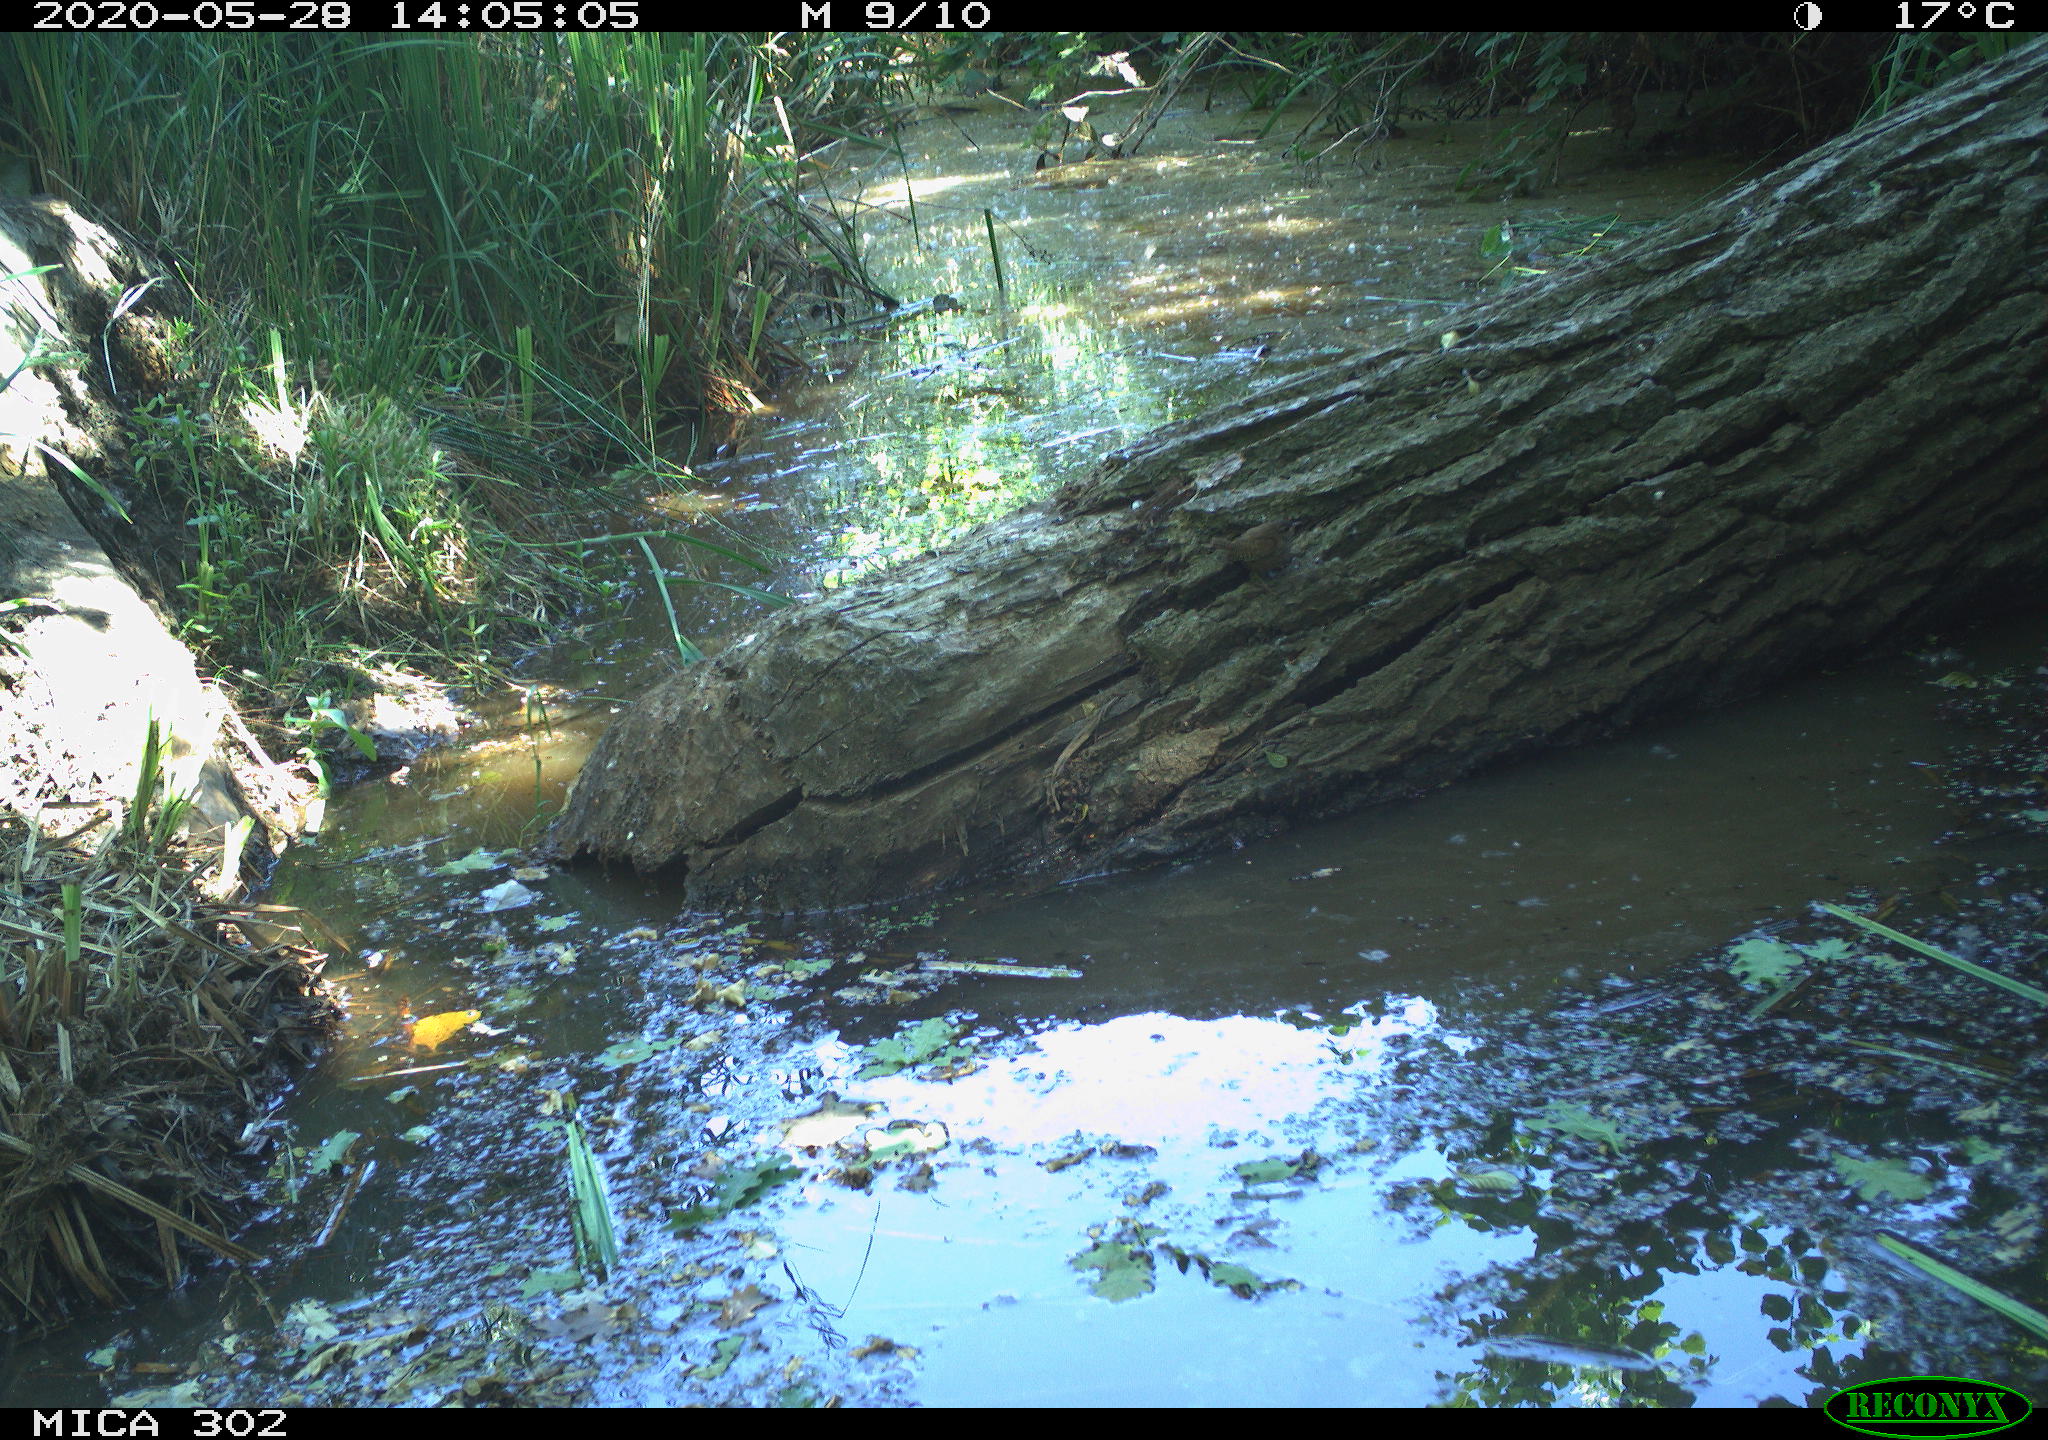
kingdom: Animalia
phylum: Chordata
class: Aves
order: Passeriformes
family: Troglodytidae
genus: Troglodytes
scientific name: Troglodytes troglodytes
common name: Eurasian wren
